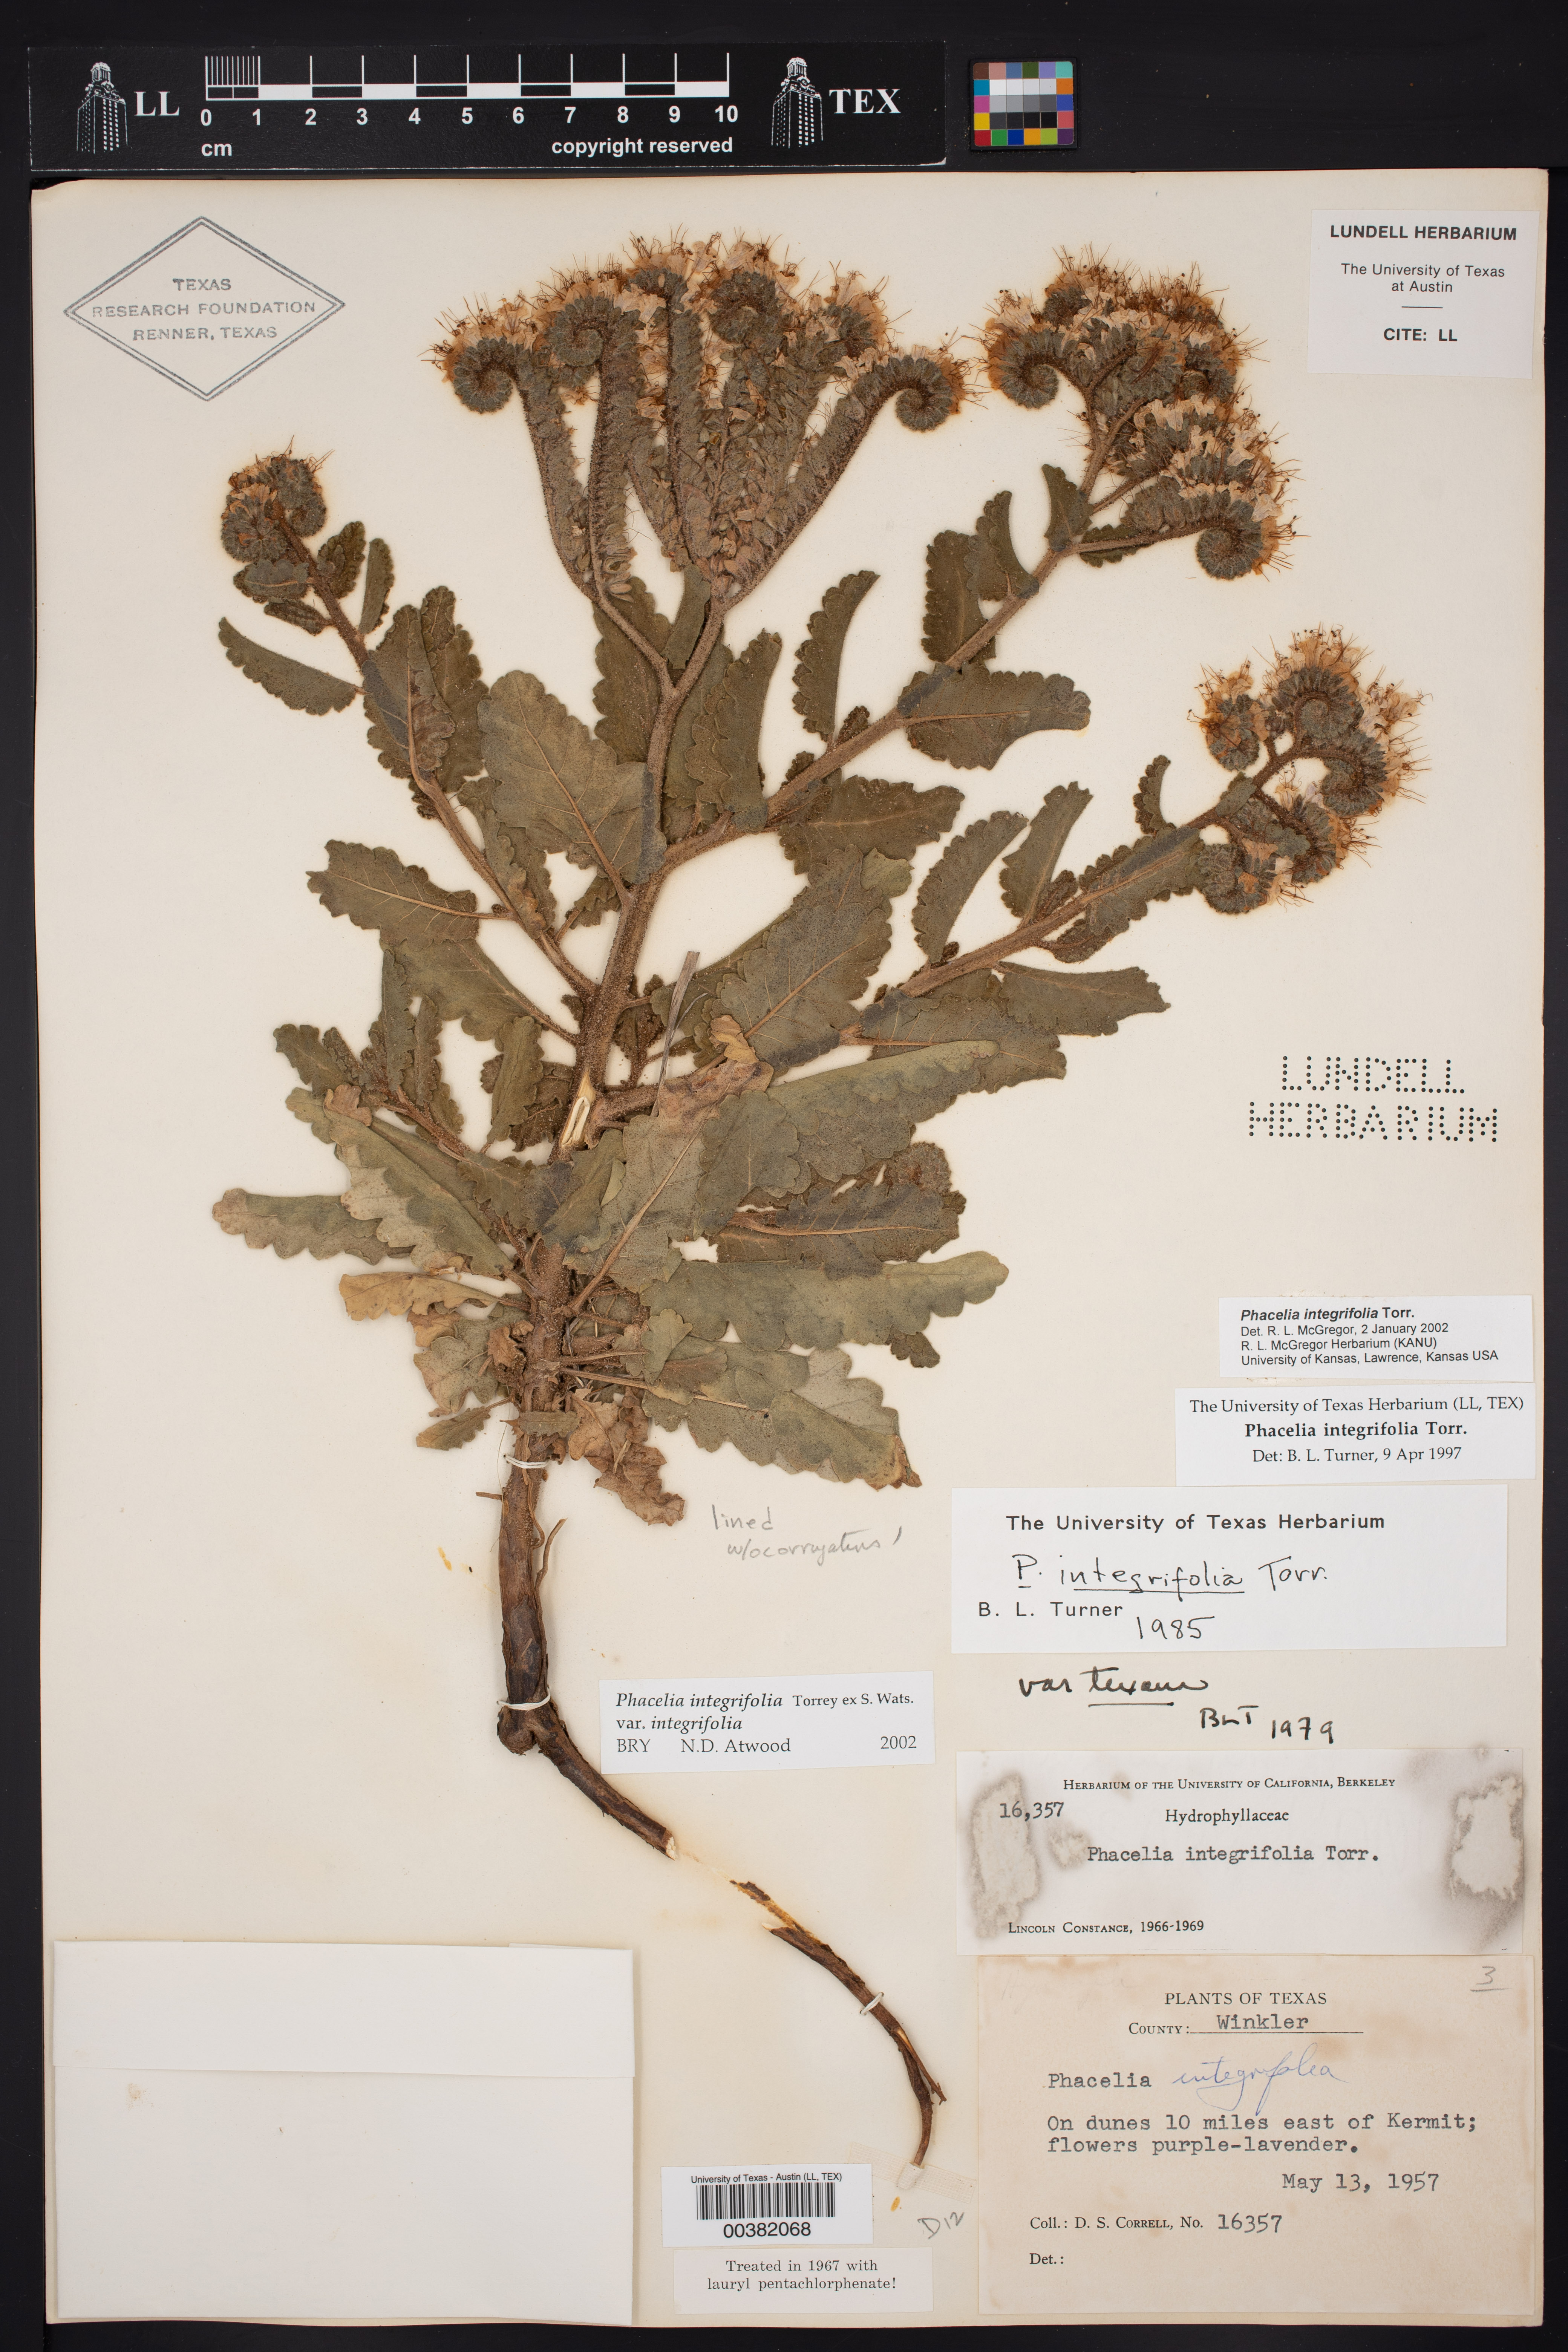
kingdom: Plantae
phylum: Tracheophyta
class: Magnoliopsida
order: Boraginales
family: Hydrophyllaceae
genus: Phacelia
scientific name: Phacelia integrifolia
